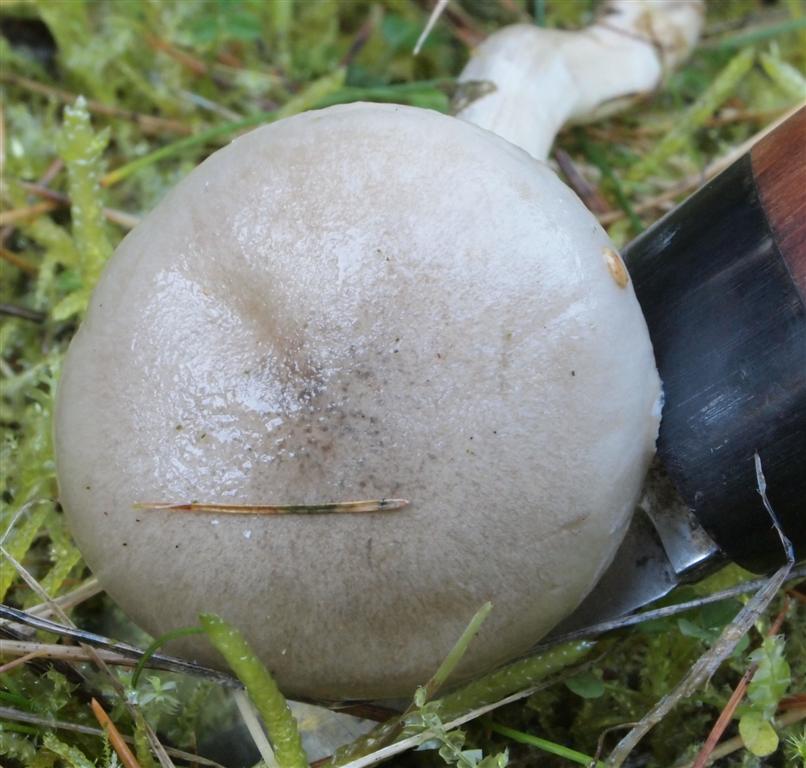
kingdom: Fungi
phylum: Basidiomycota
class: Agaricomycetes
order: Agaricales
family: Hygrophoraceae
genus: Hygrophorus
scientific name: Hygrophorus agathosmus
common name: vellugtende sneglehat
